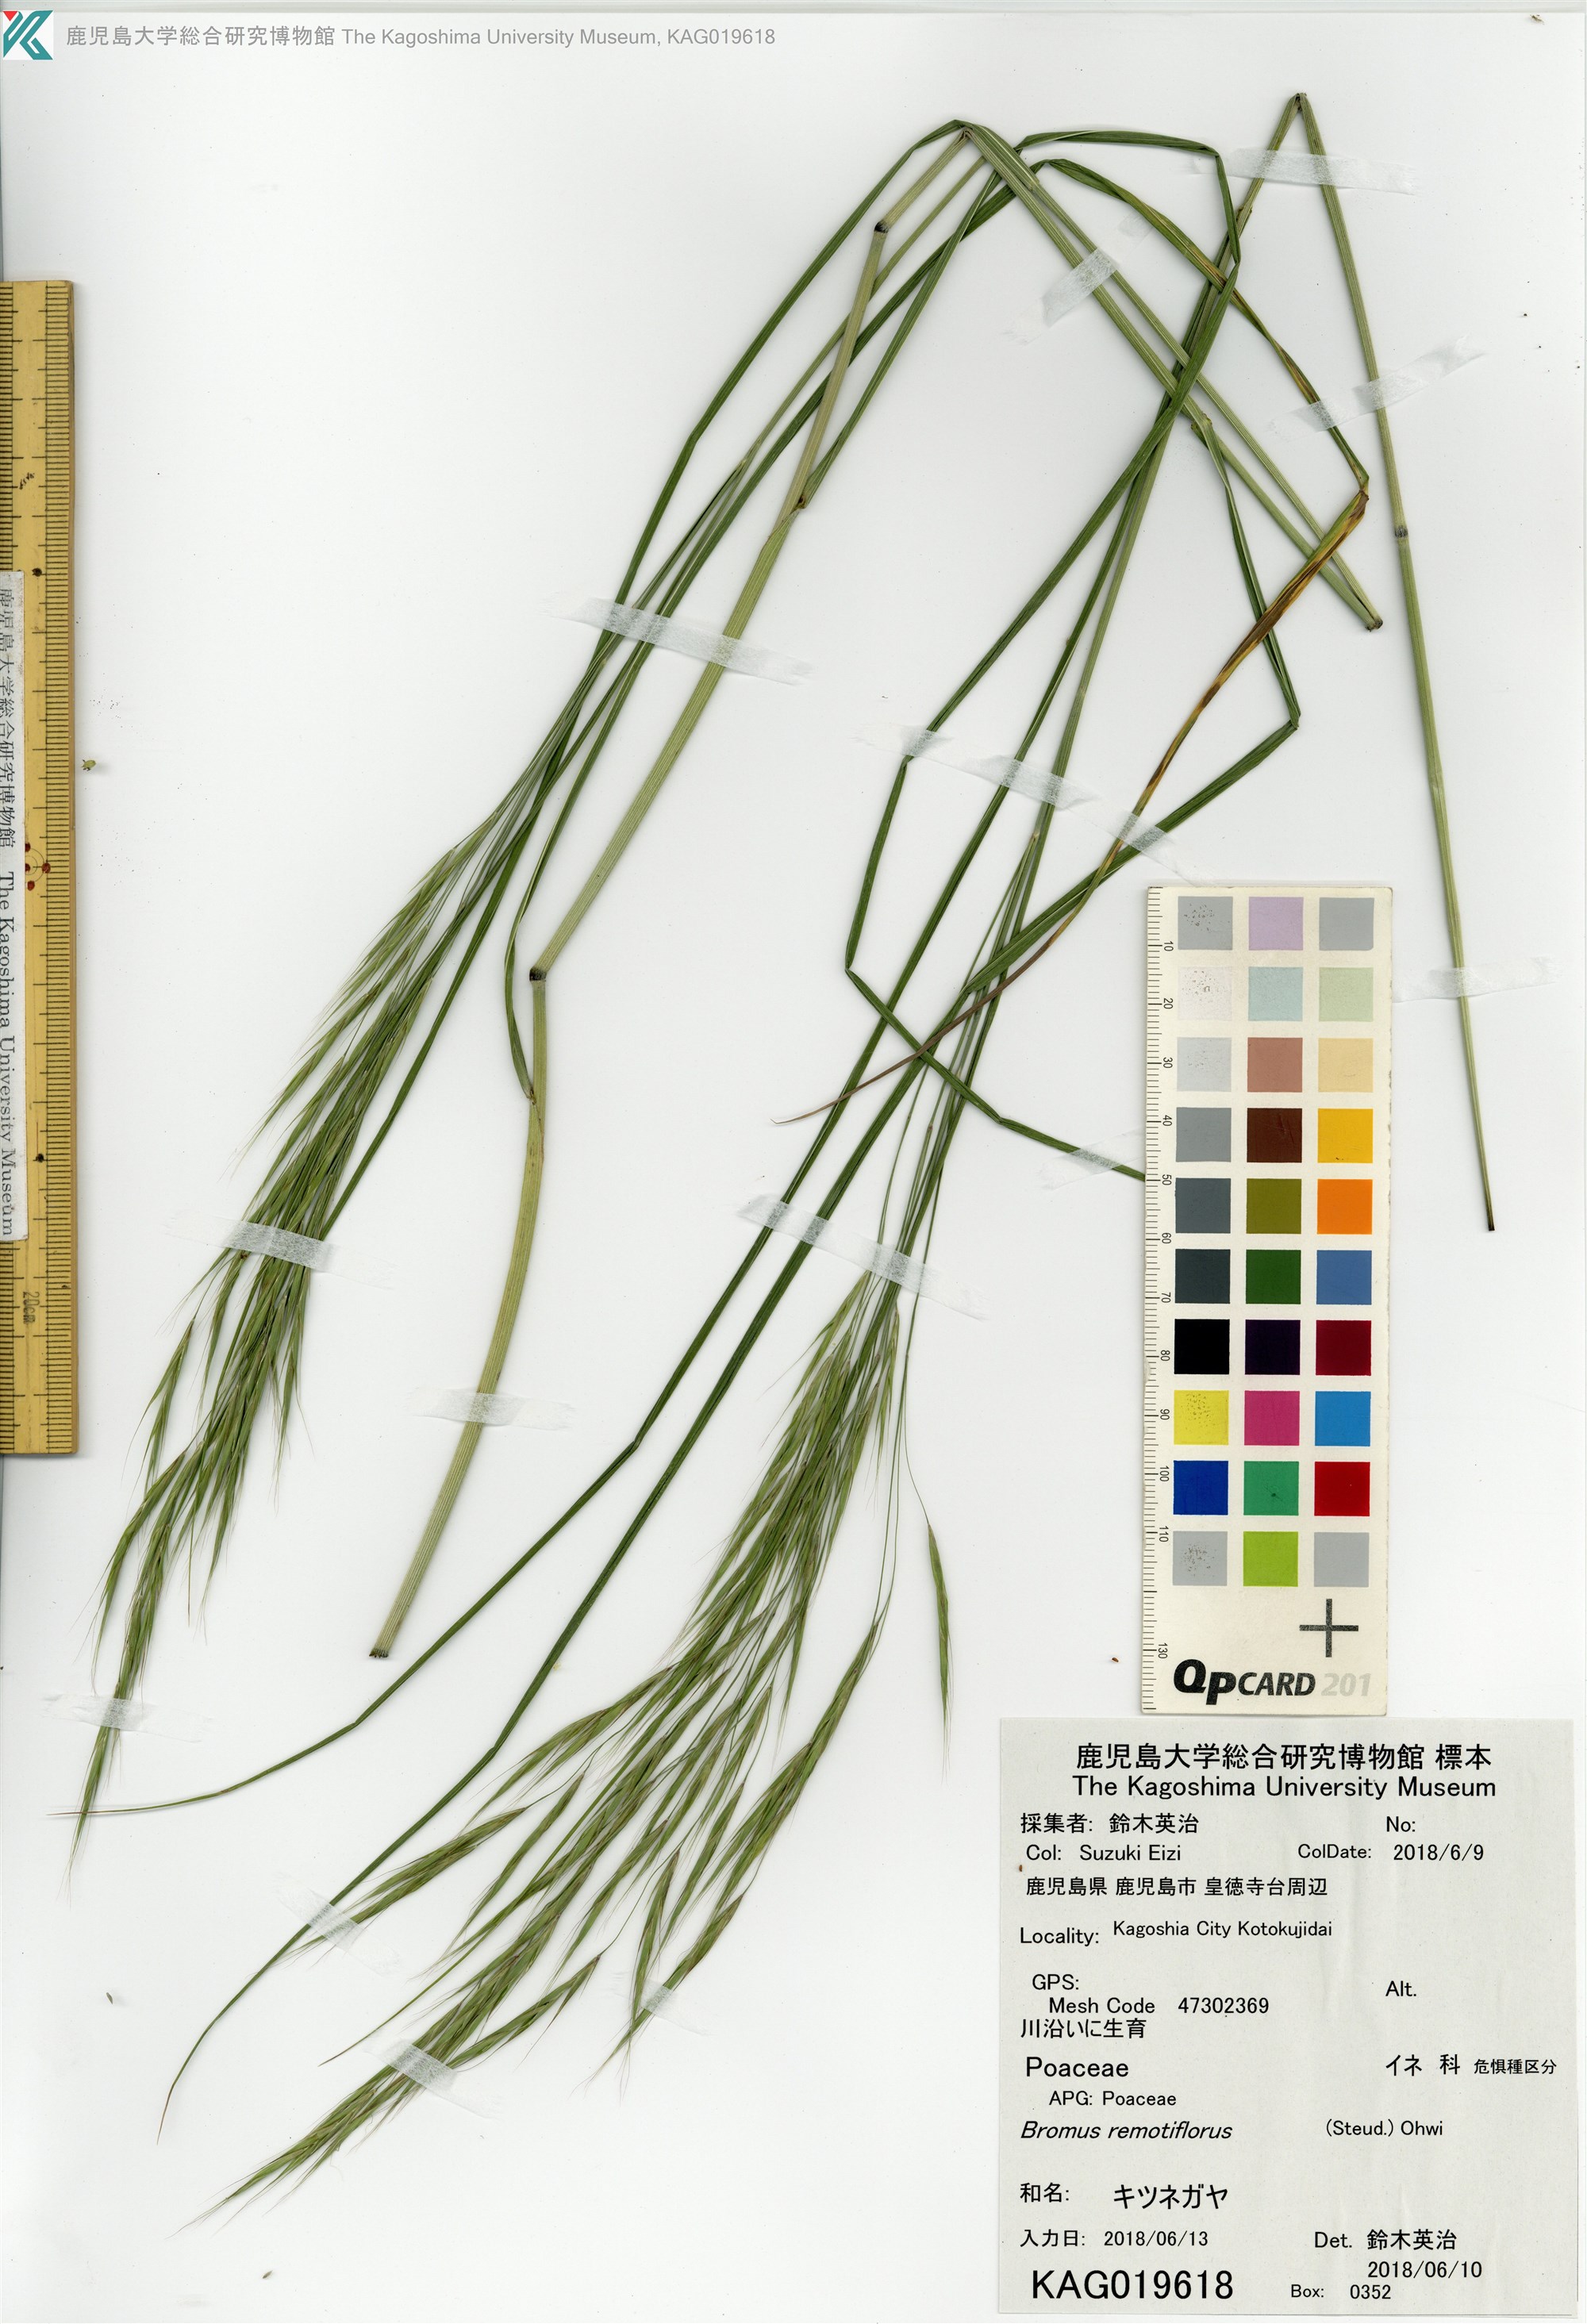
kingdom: Plantae
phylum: Tracheophyta
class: Liliopsida
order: Poales
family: Poaceae
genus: Bromus
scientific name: Bromus remotiflorus
